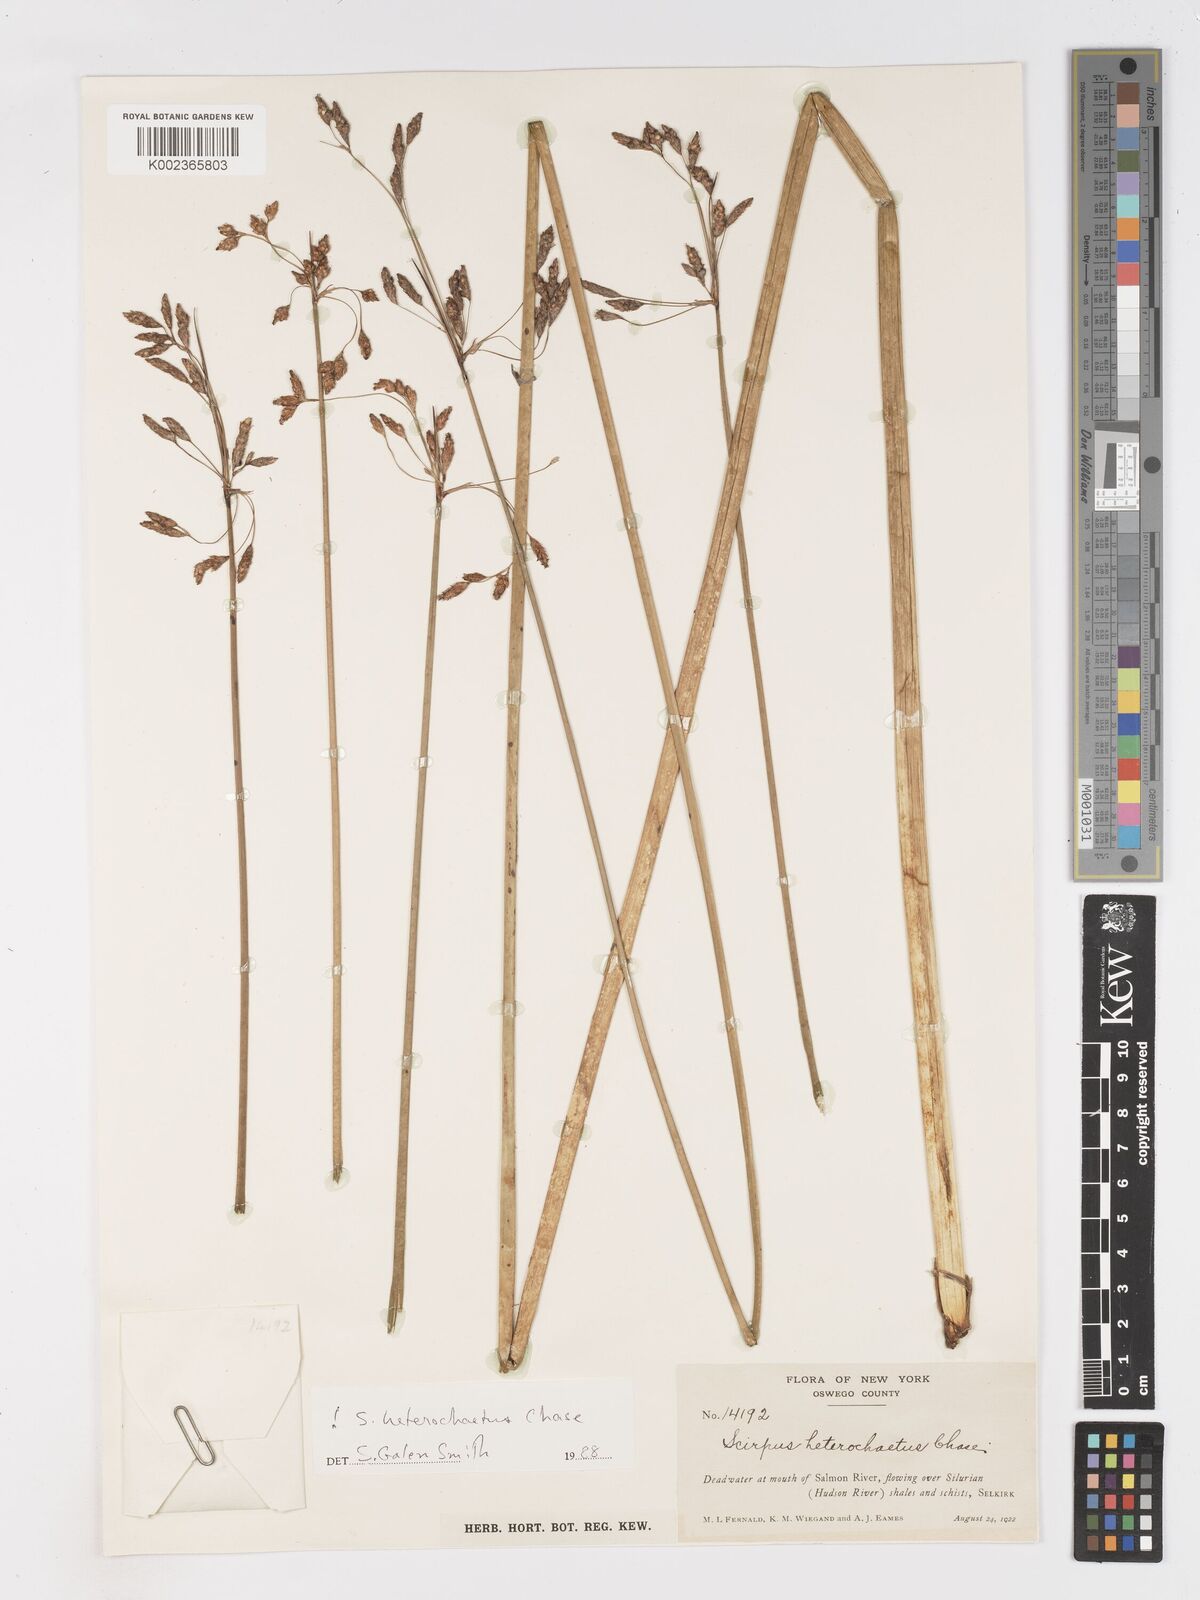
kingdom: Plantae
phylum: Tracheophyta
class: Liliopsida
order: Poales
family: Cyperaceae
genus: Schoenoplectus
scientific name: Schoenoplectus heterochaetus
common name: Pale great bulrush
